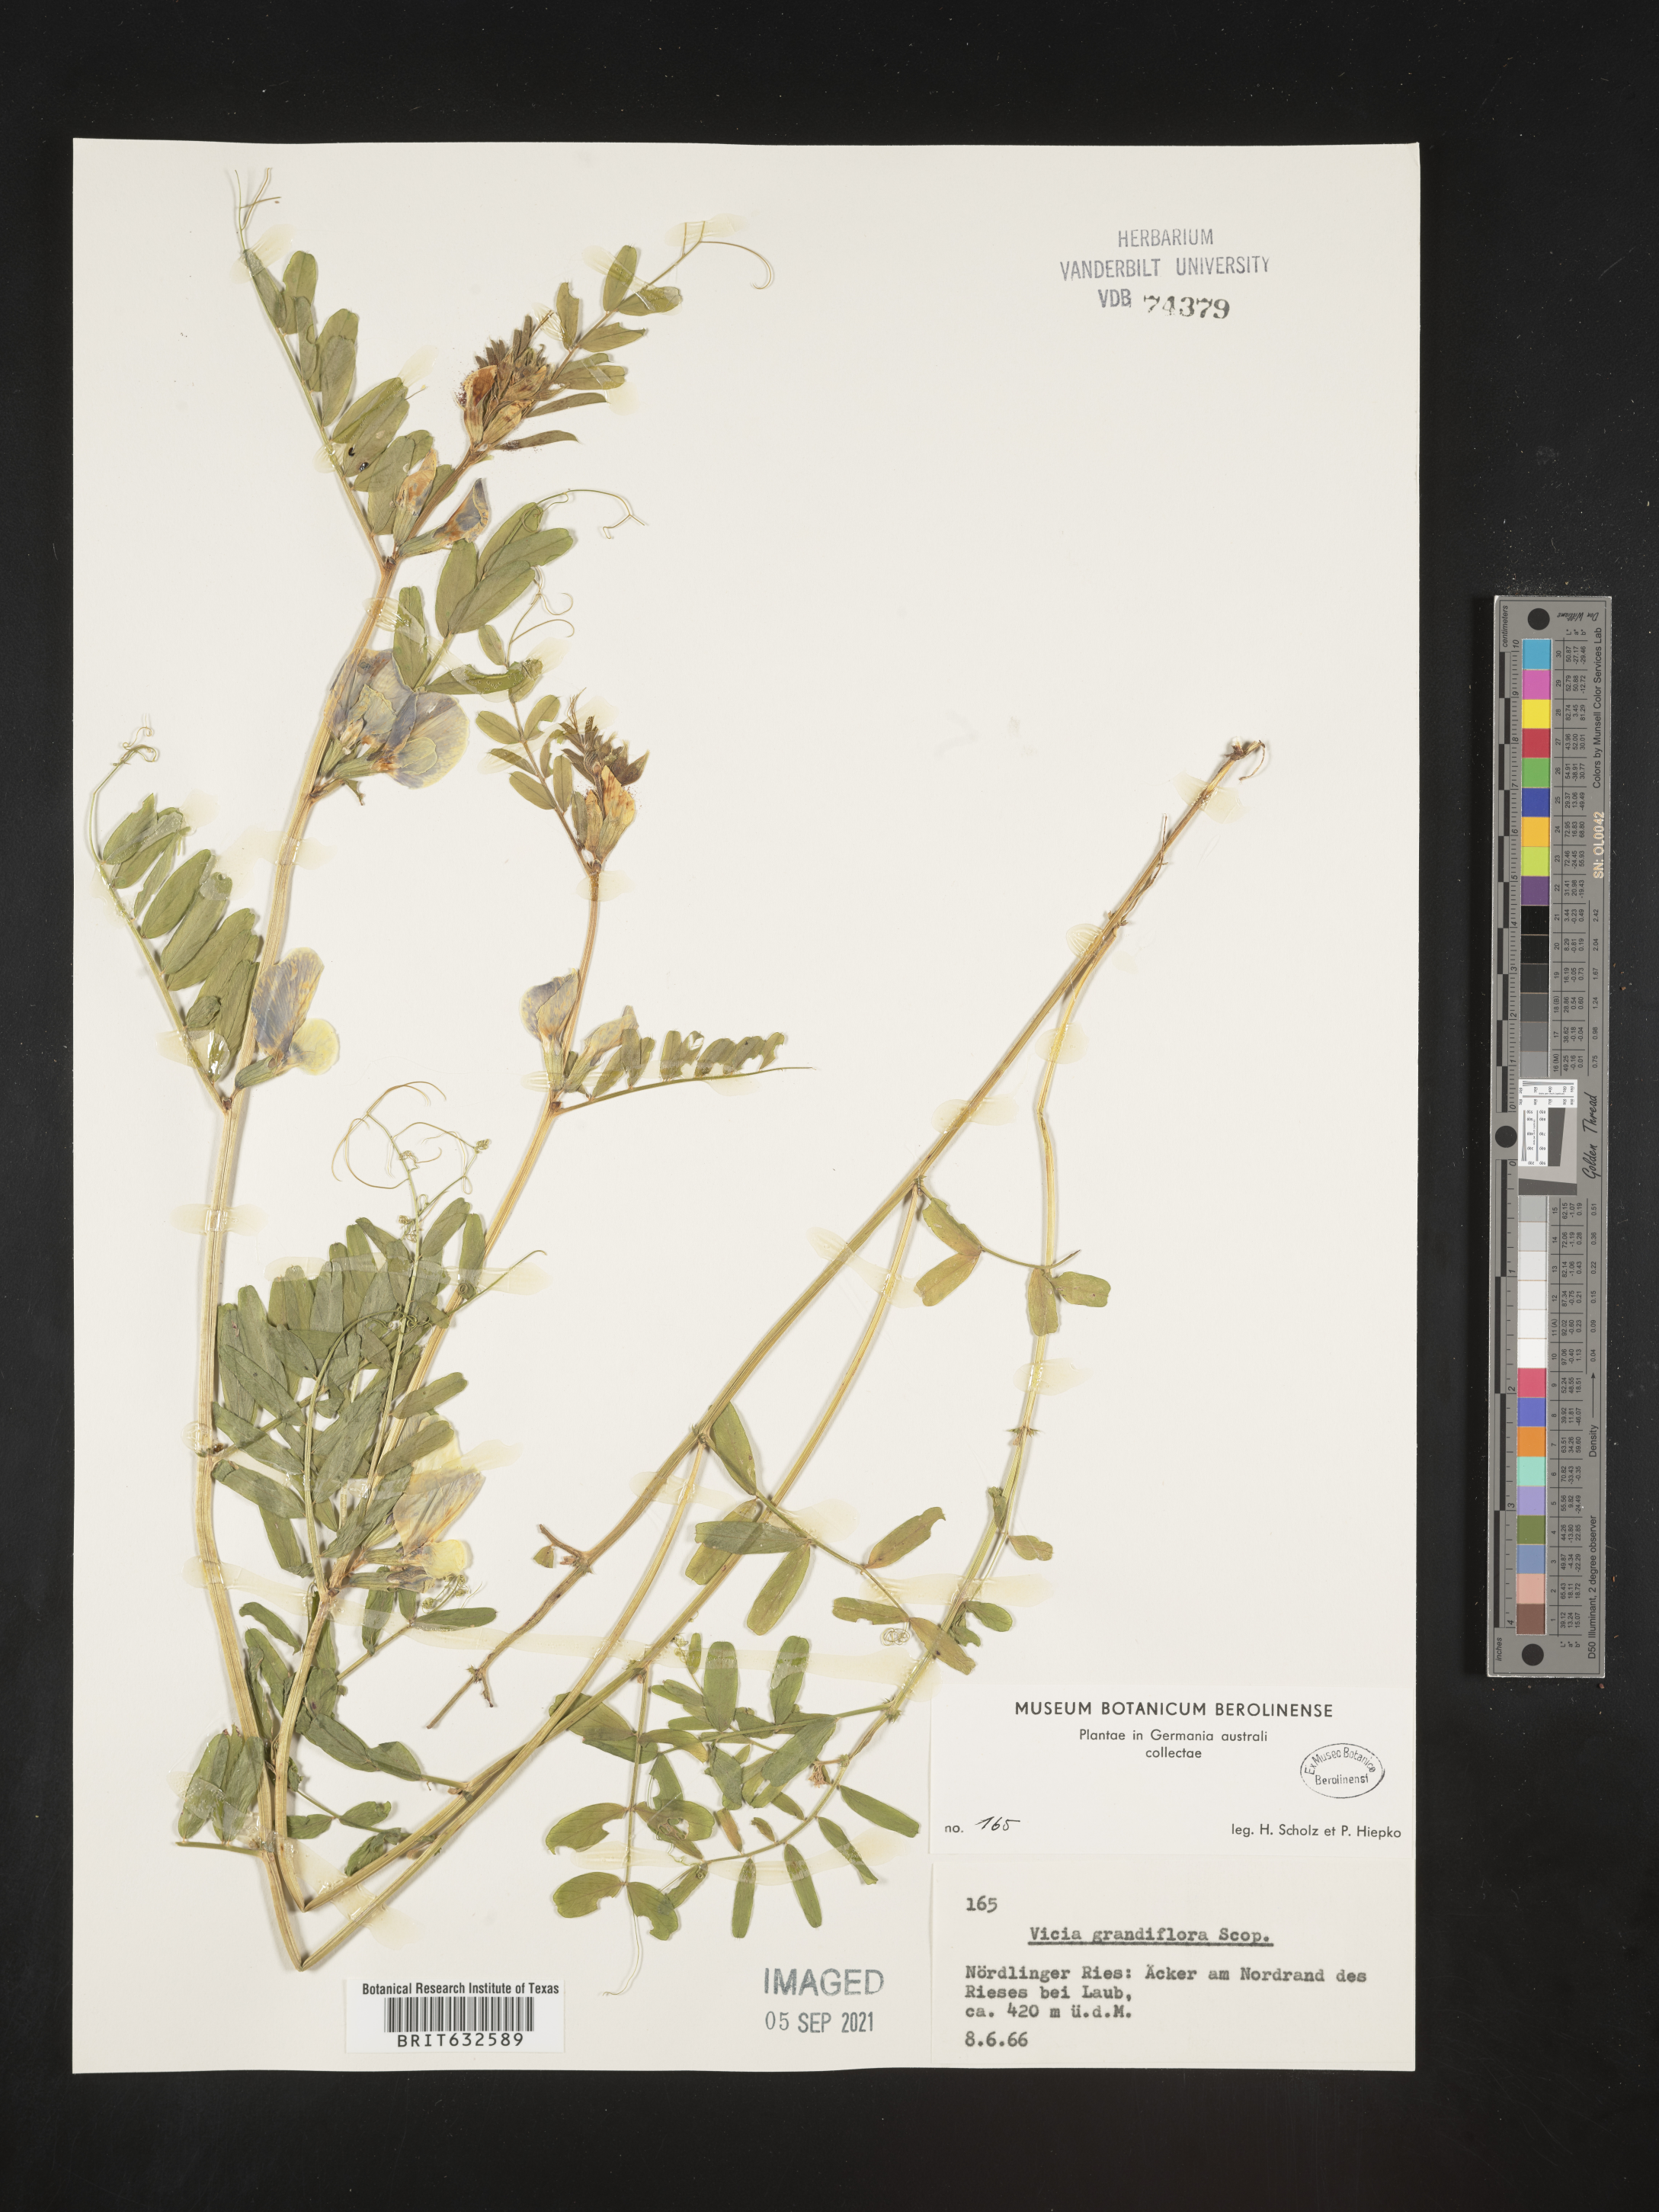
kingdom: Plantae
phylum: Tracheophyta
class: Magnoliopsida
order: Fabales
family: Fabaceae
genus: Vicia
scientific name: Vicia
